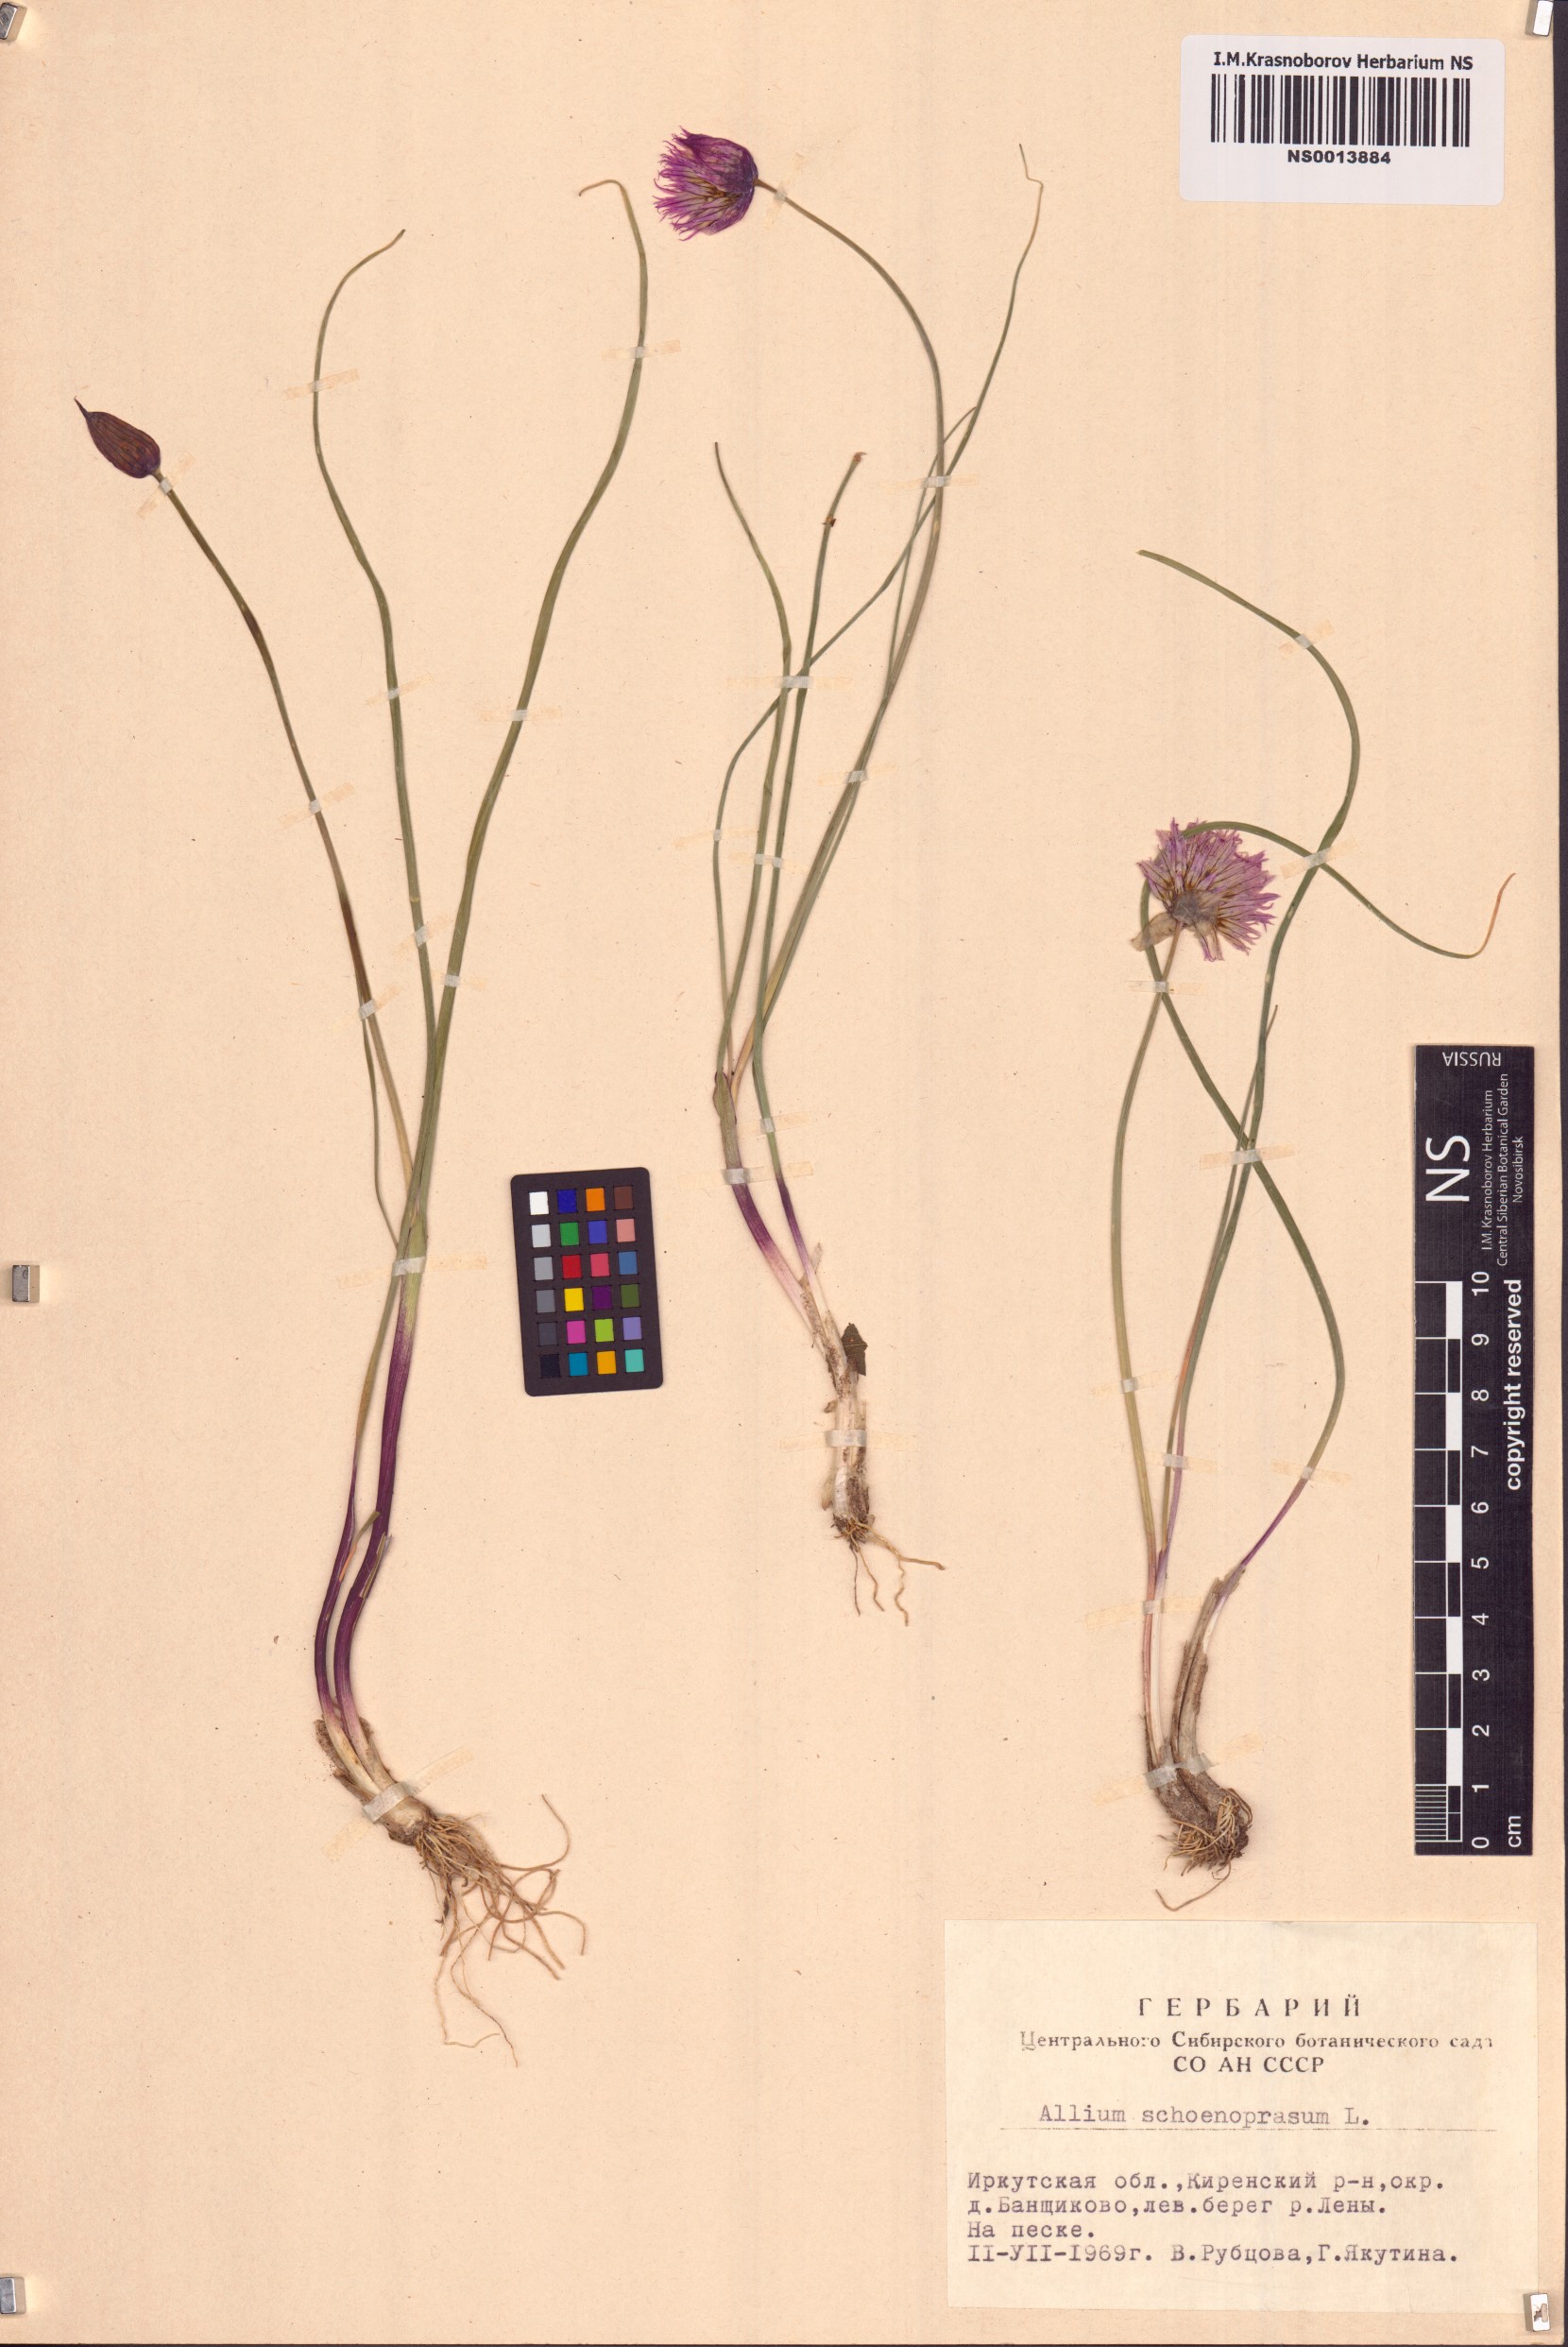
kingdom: Plantae
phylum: Tracheophyta
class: Liliopsida
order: Asparagales
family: Amaryllidaceae
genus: Allium
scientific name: Allium schoenoprasum
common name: Chives
